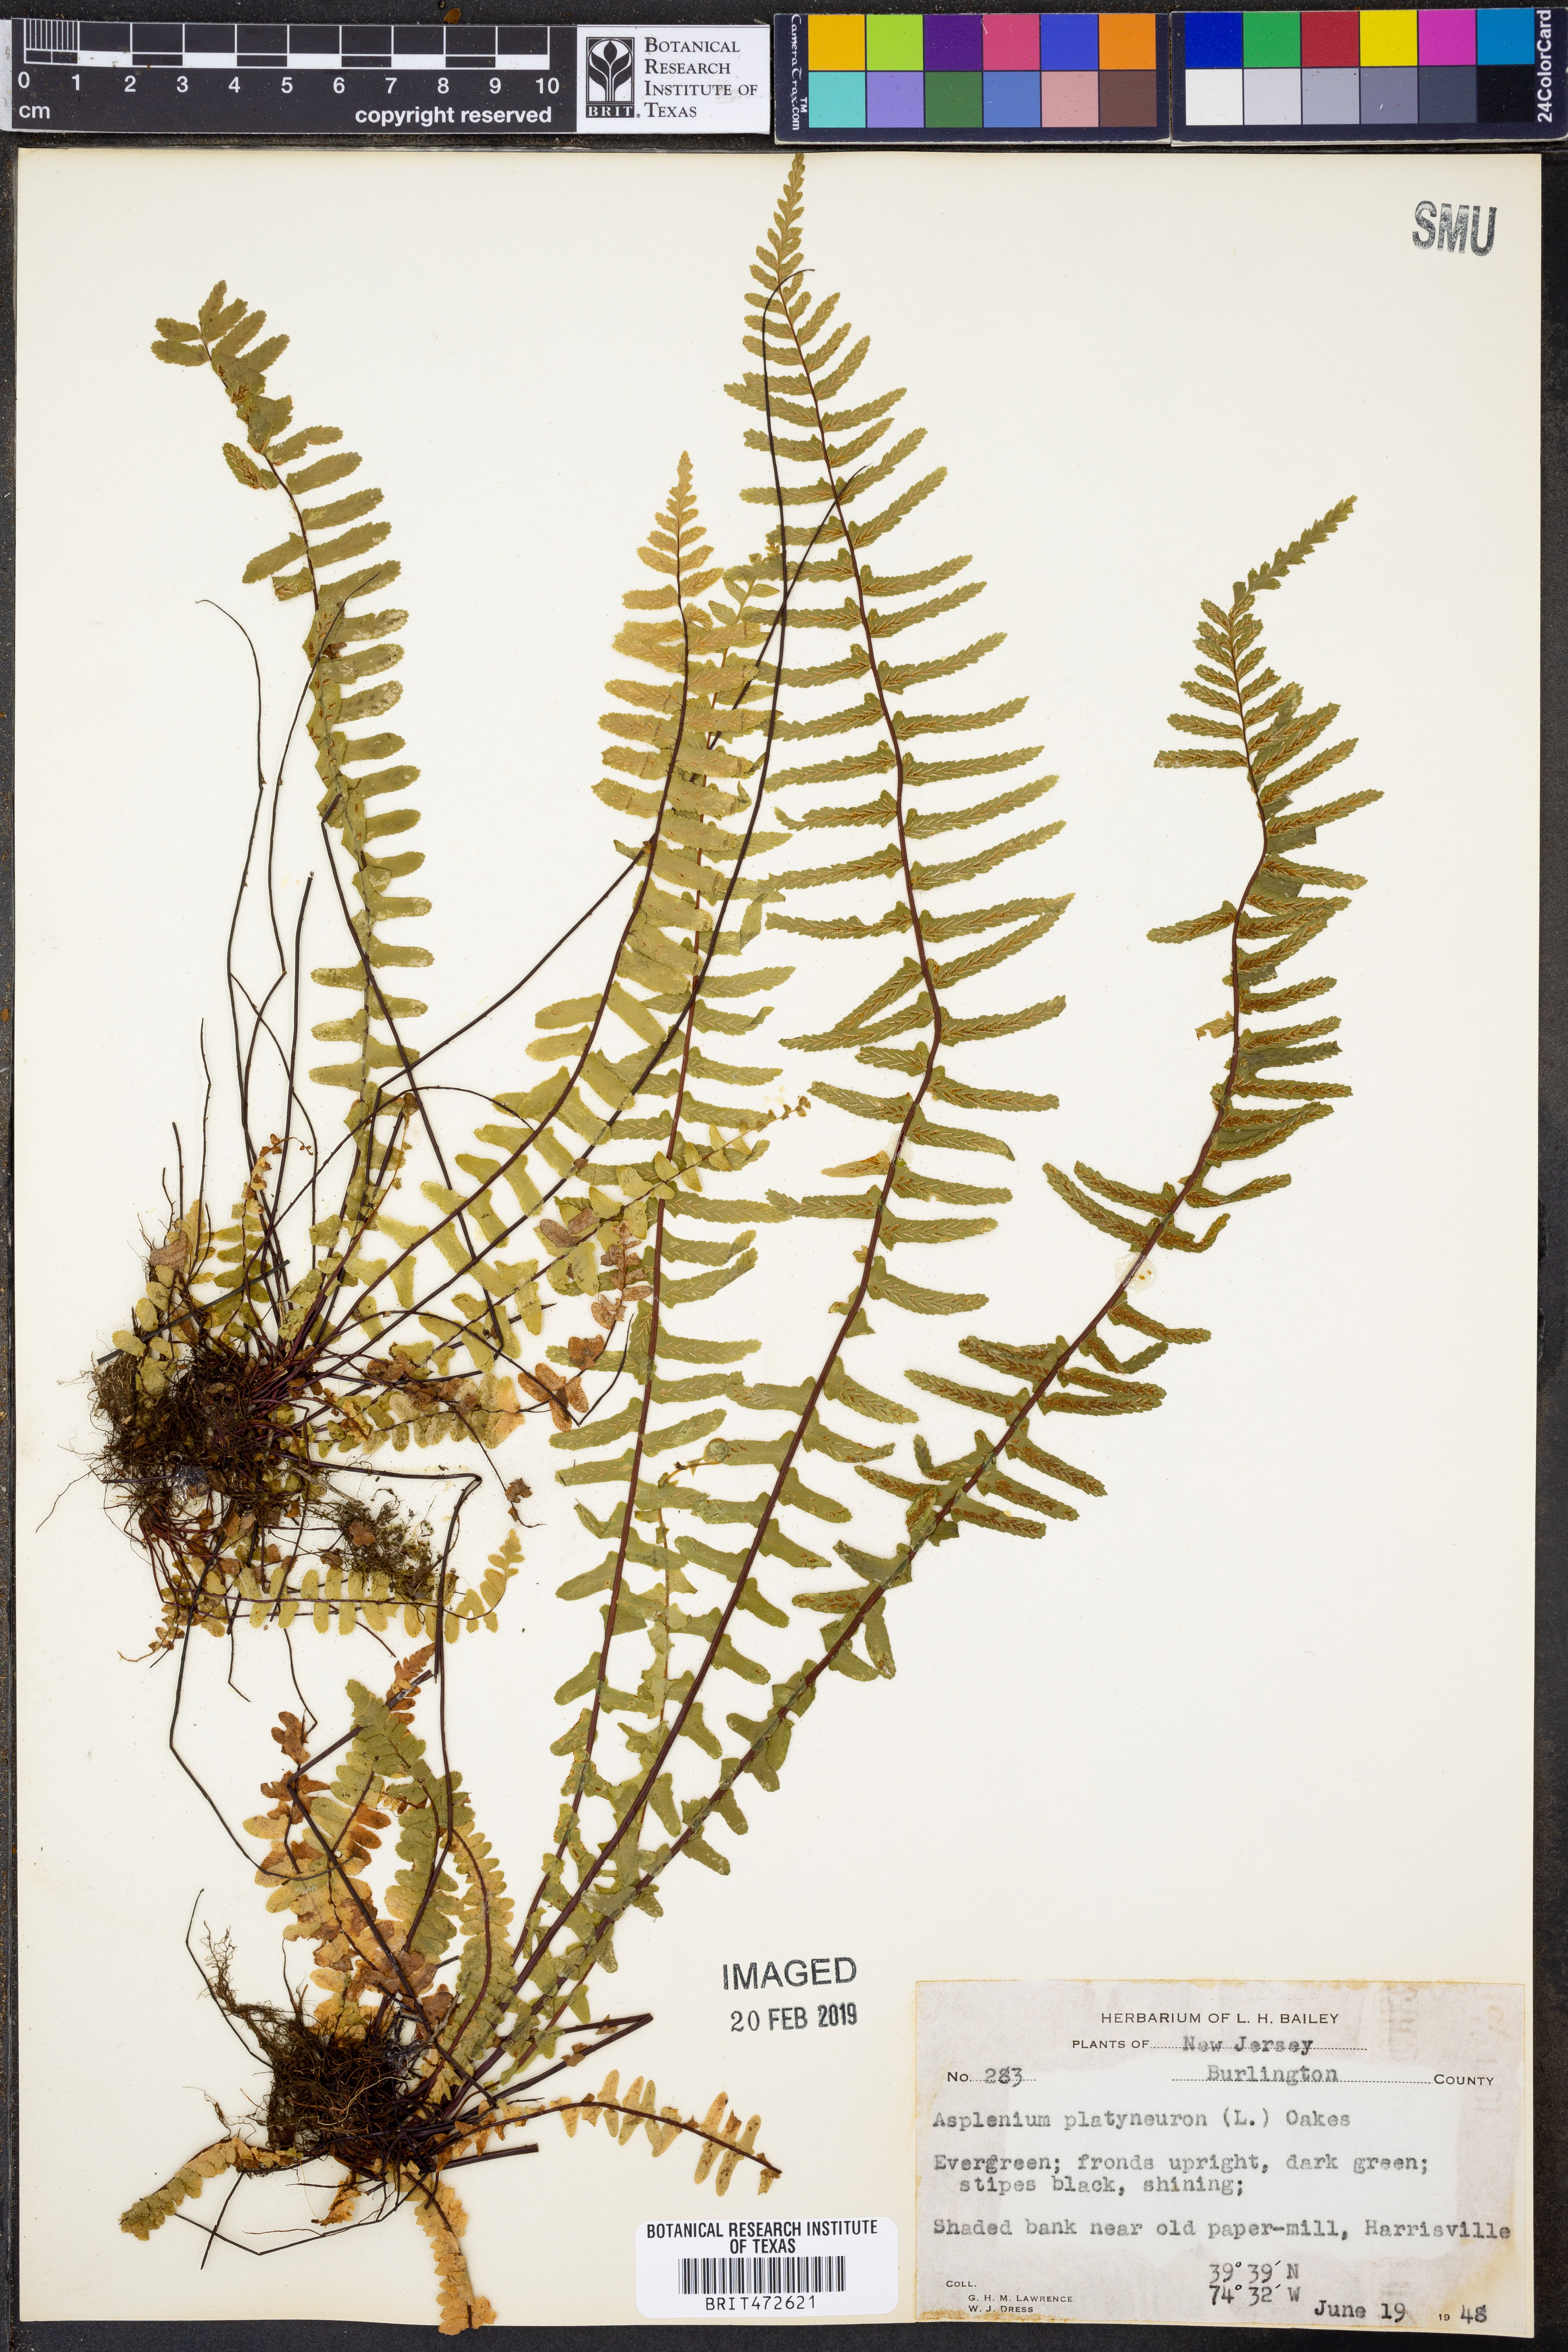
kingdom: Plantae
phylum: Tracheophyta
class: Polypodiopsida
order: Polypodiales
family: Aspleniaceae
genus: Asplenium
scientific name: Asplenium platyneuron
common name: Ebony spleenwort
